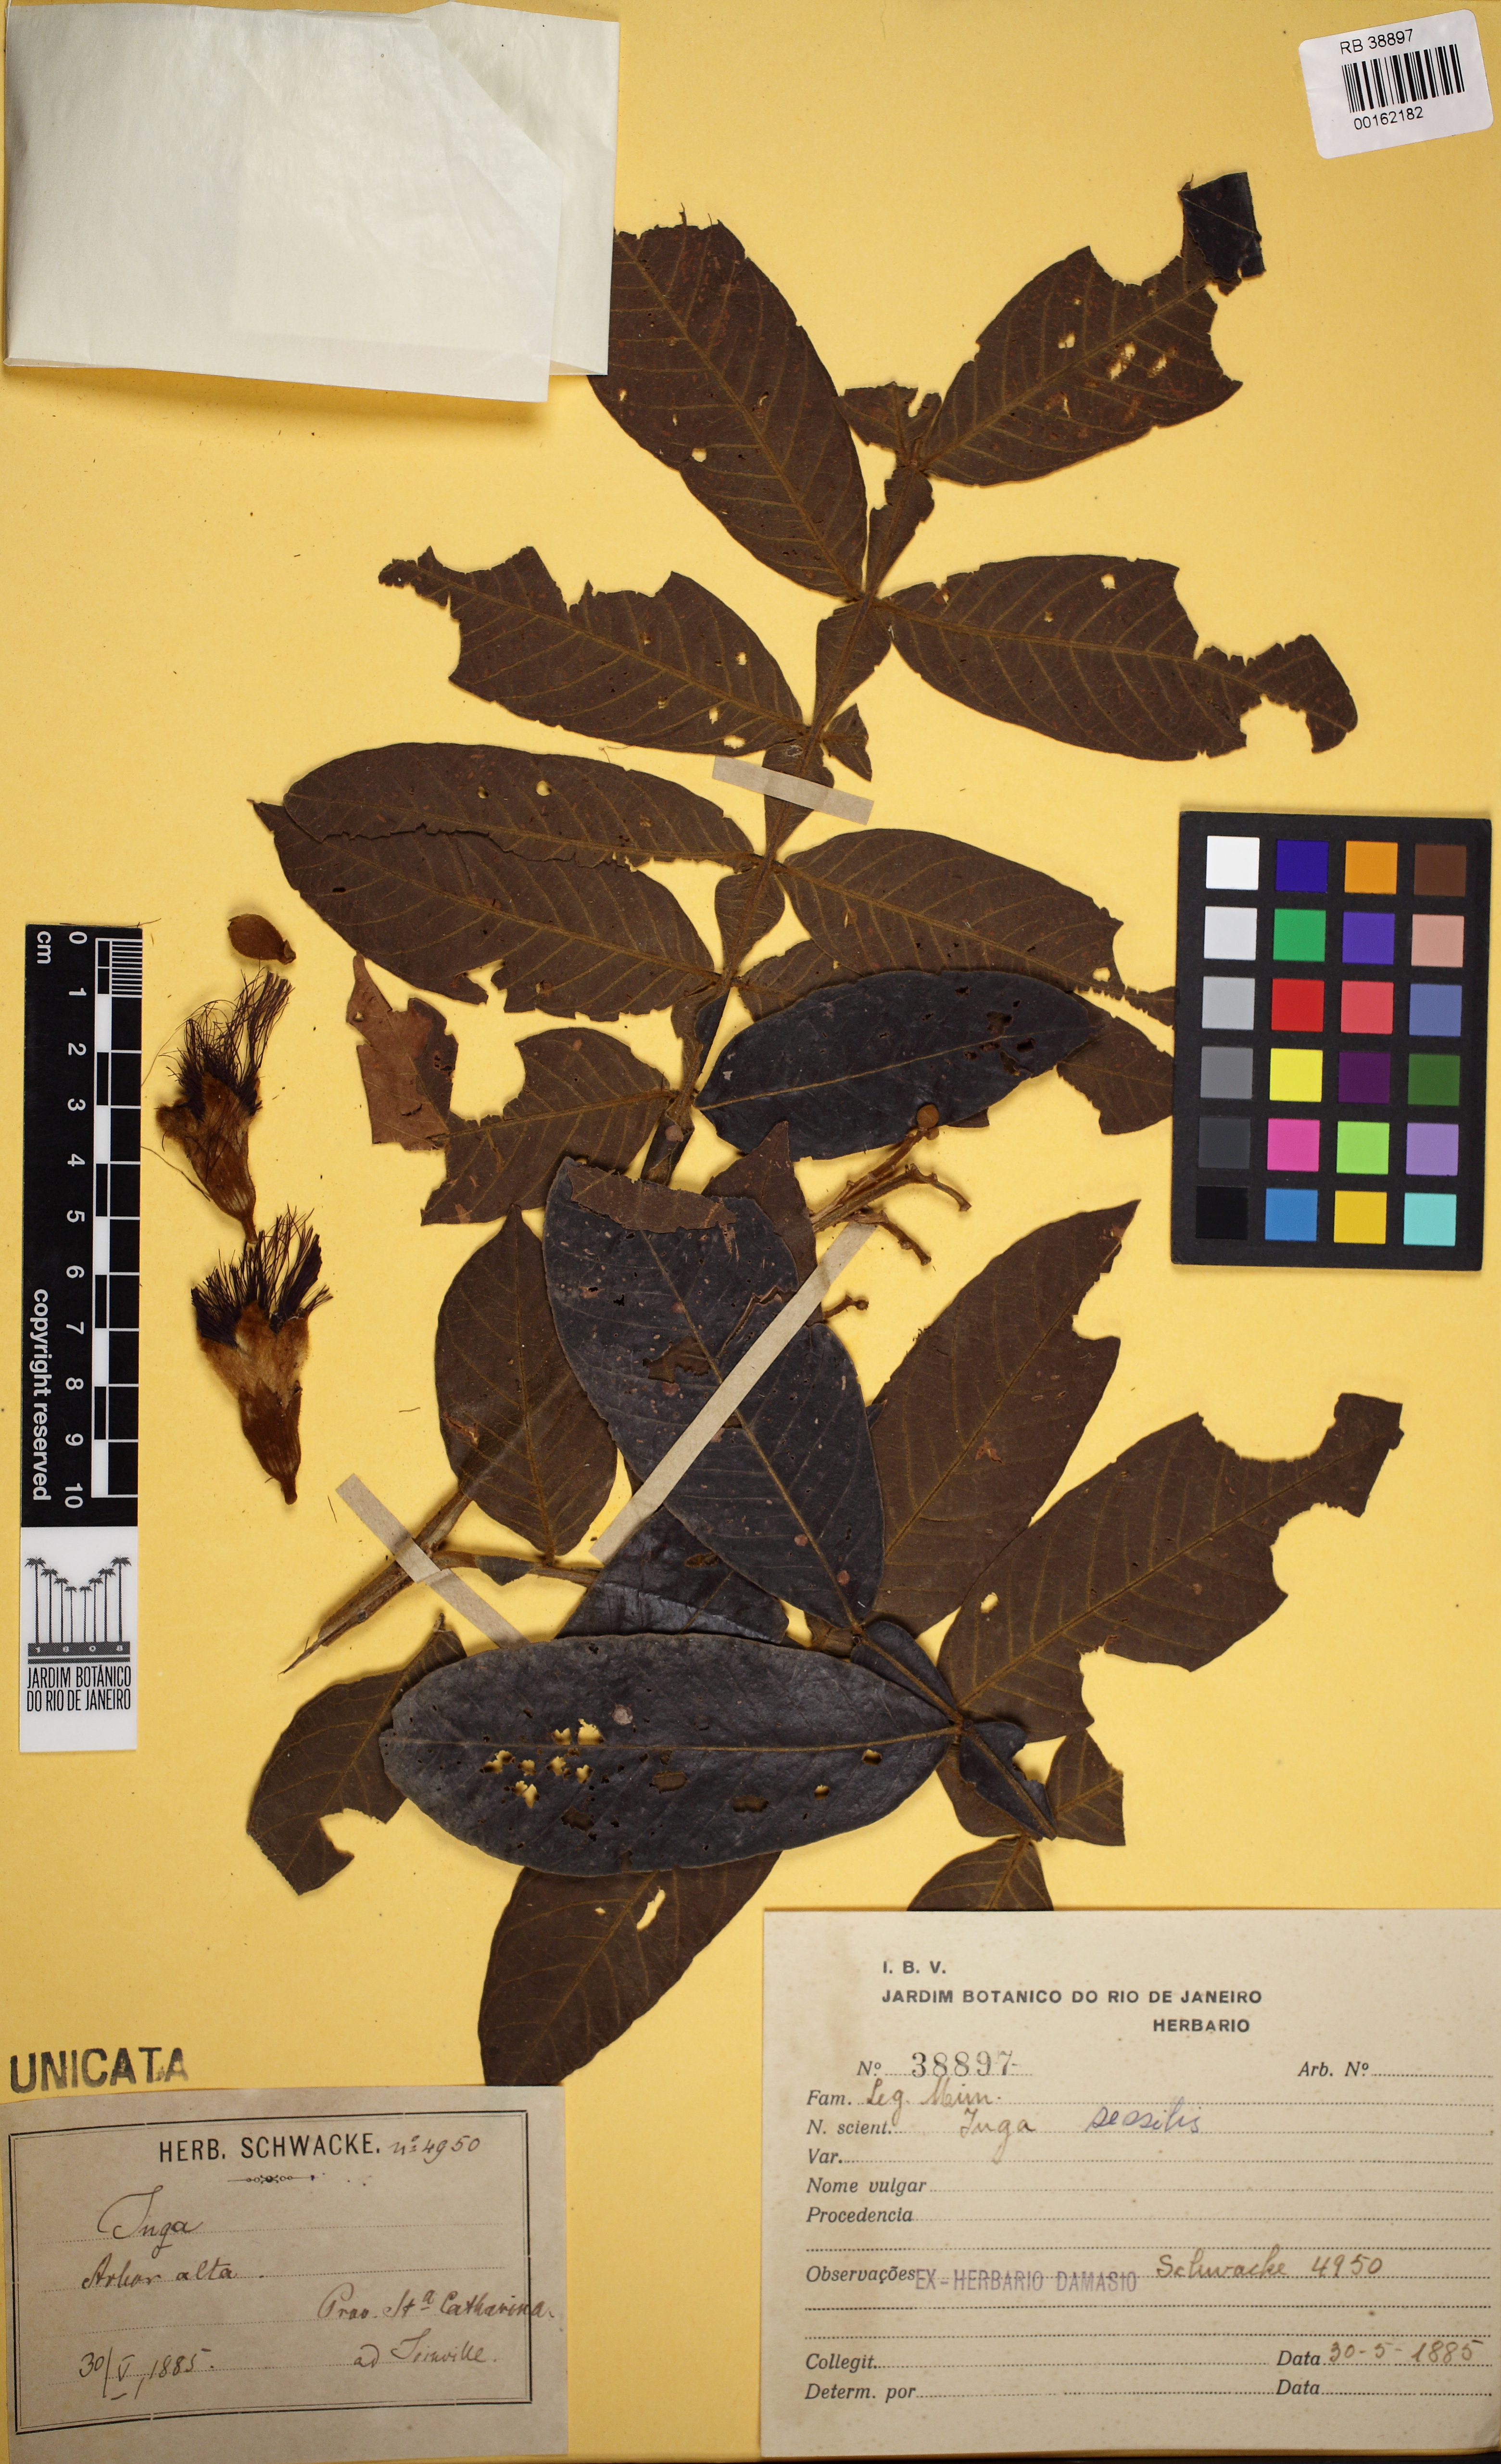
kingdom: Plantae
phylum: Tracheophyta
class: Magnoliopsida
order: Fabales
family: Fabaceae
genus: Inga
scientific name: Inga sessilis
